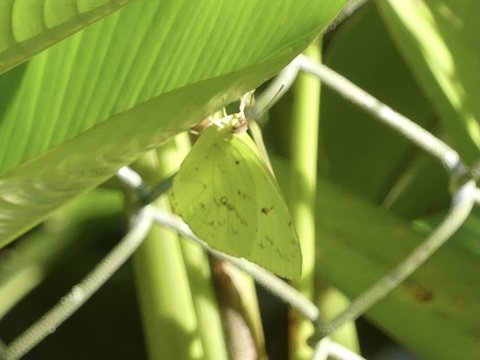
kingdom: Animalia
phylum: Arthropoda
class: Insecta
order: Lepidoptera
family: Pieridae
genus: Phoebis
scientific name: Phoebis sennae
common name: Cloudless Sulphur
